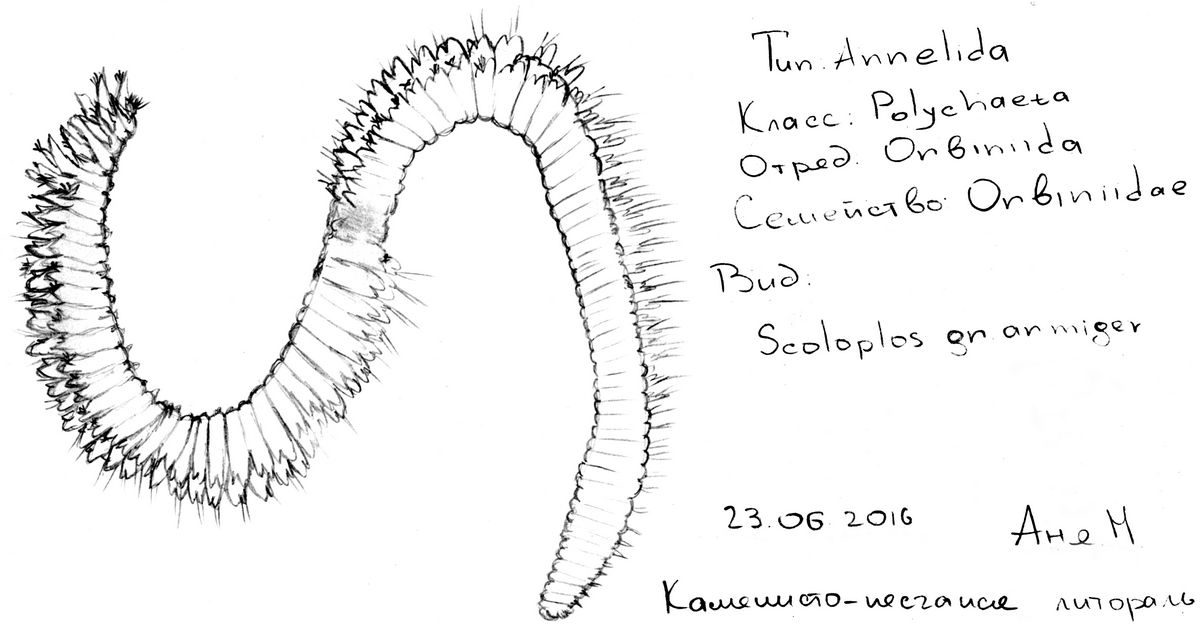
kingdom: Animalia
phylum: Annelida
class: Polychaeta
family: Orbiniidae
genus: Scoloplos
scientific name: Scoloplos
